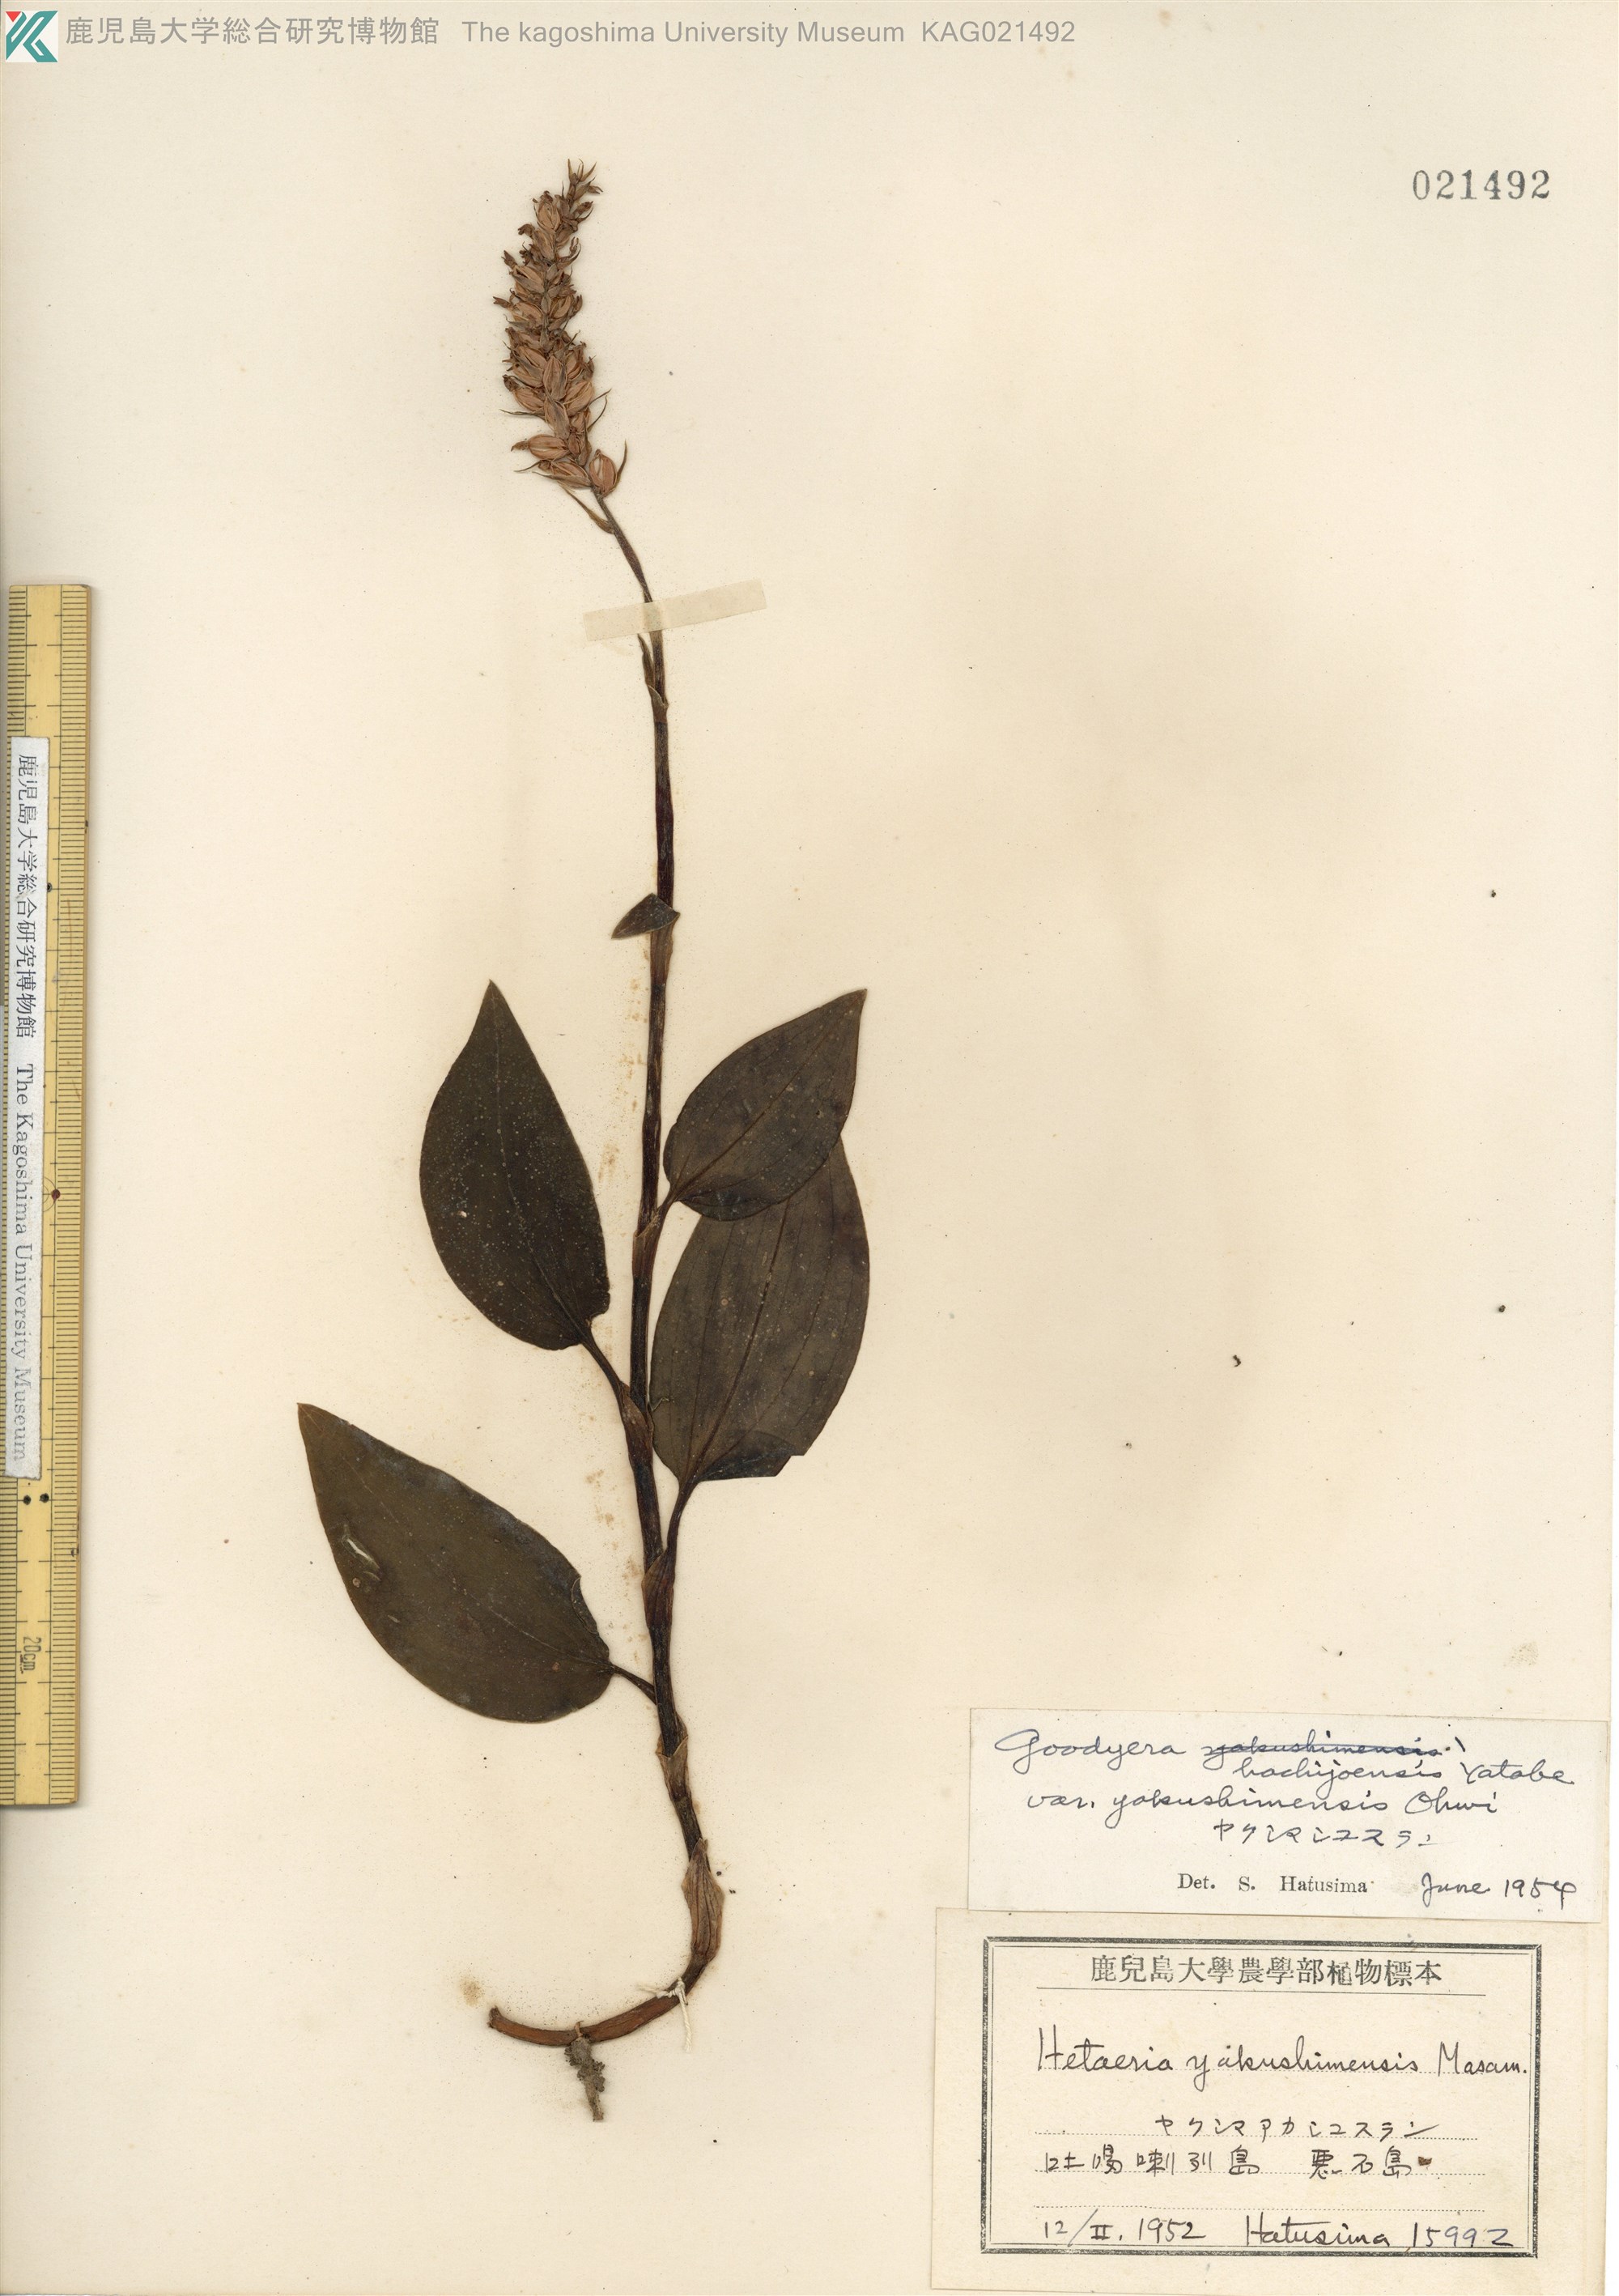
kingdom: Plantae
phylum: Tracheophyta
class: Liliopsida
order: Asparagales
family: Orchidaceae
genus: Goodyera
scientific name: Goodyera hachijoensis
